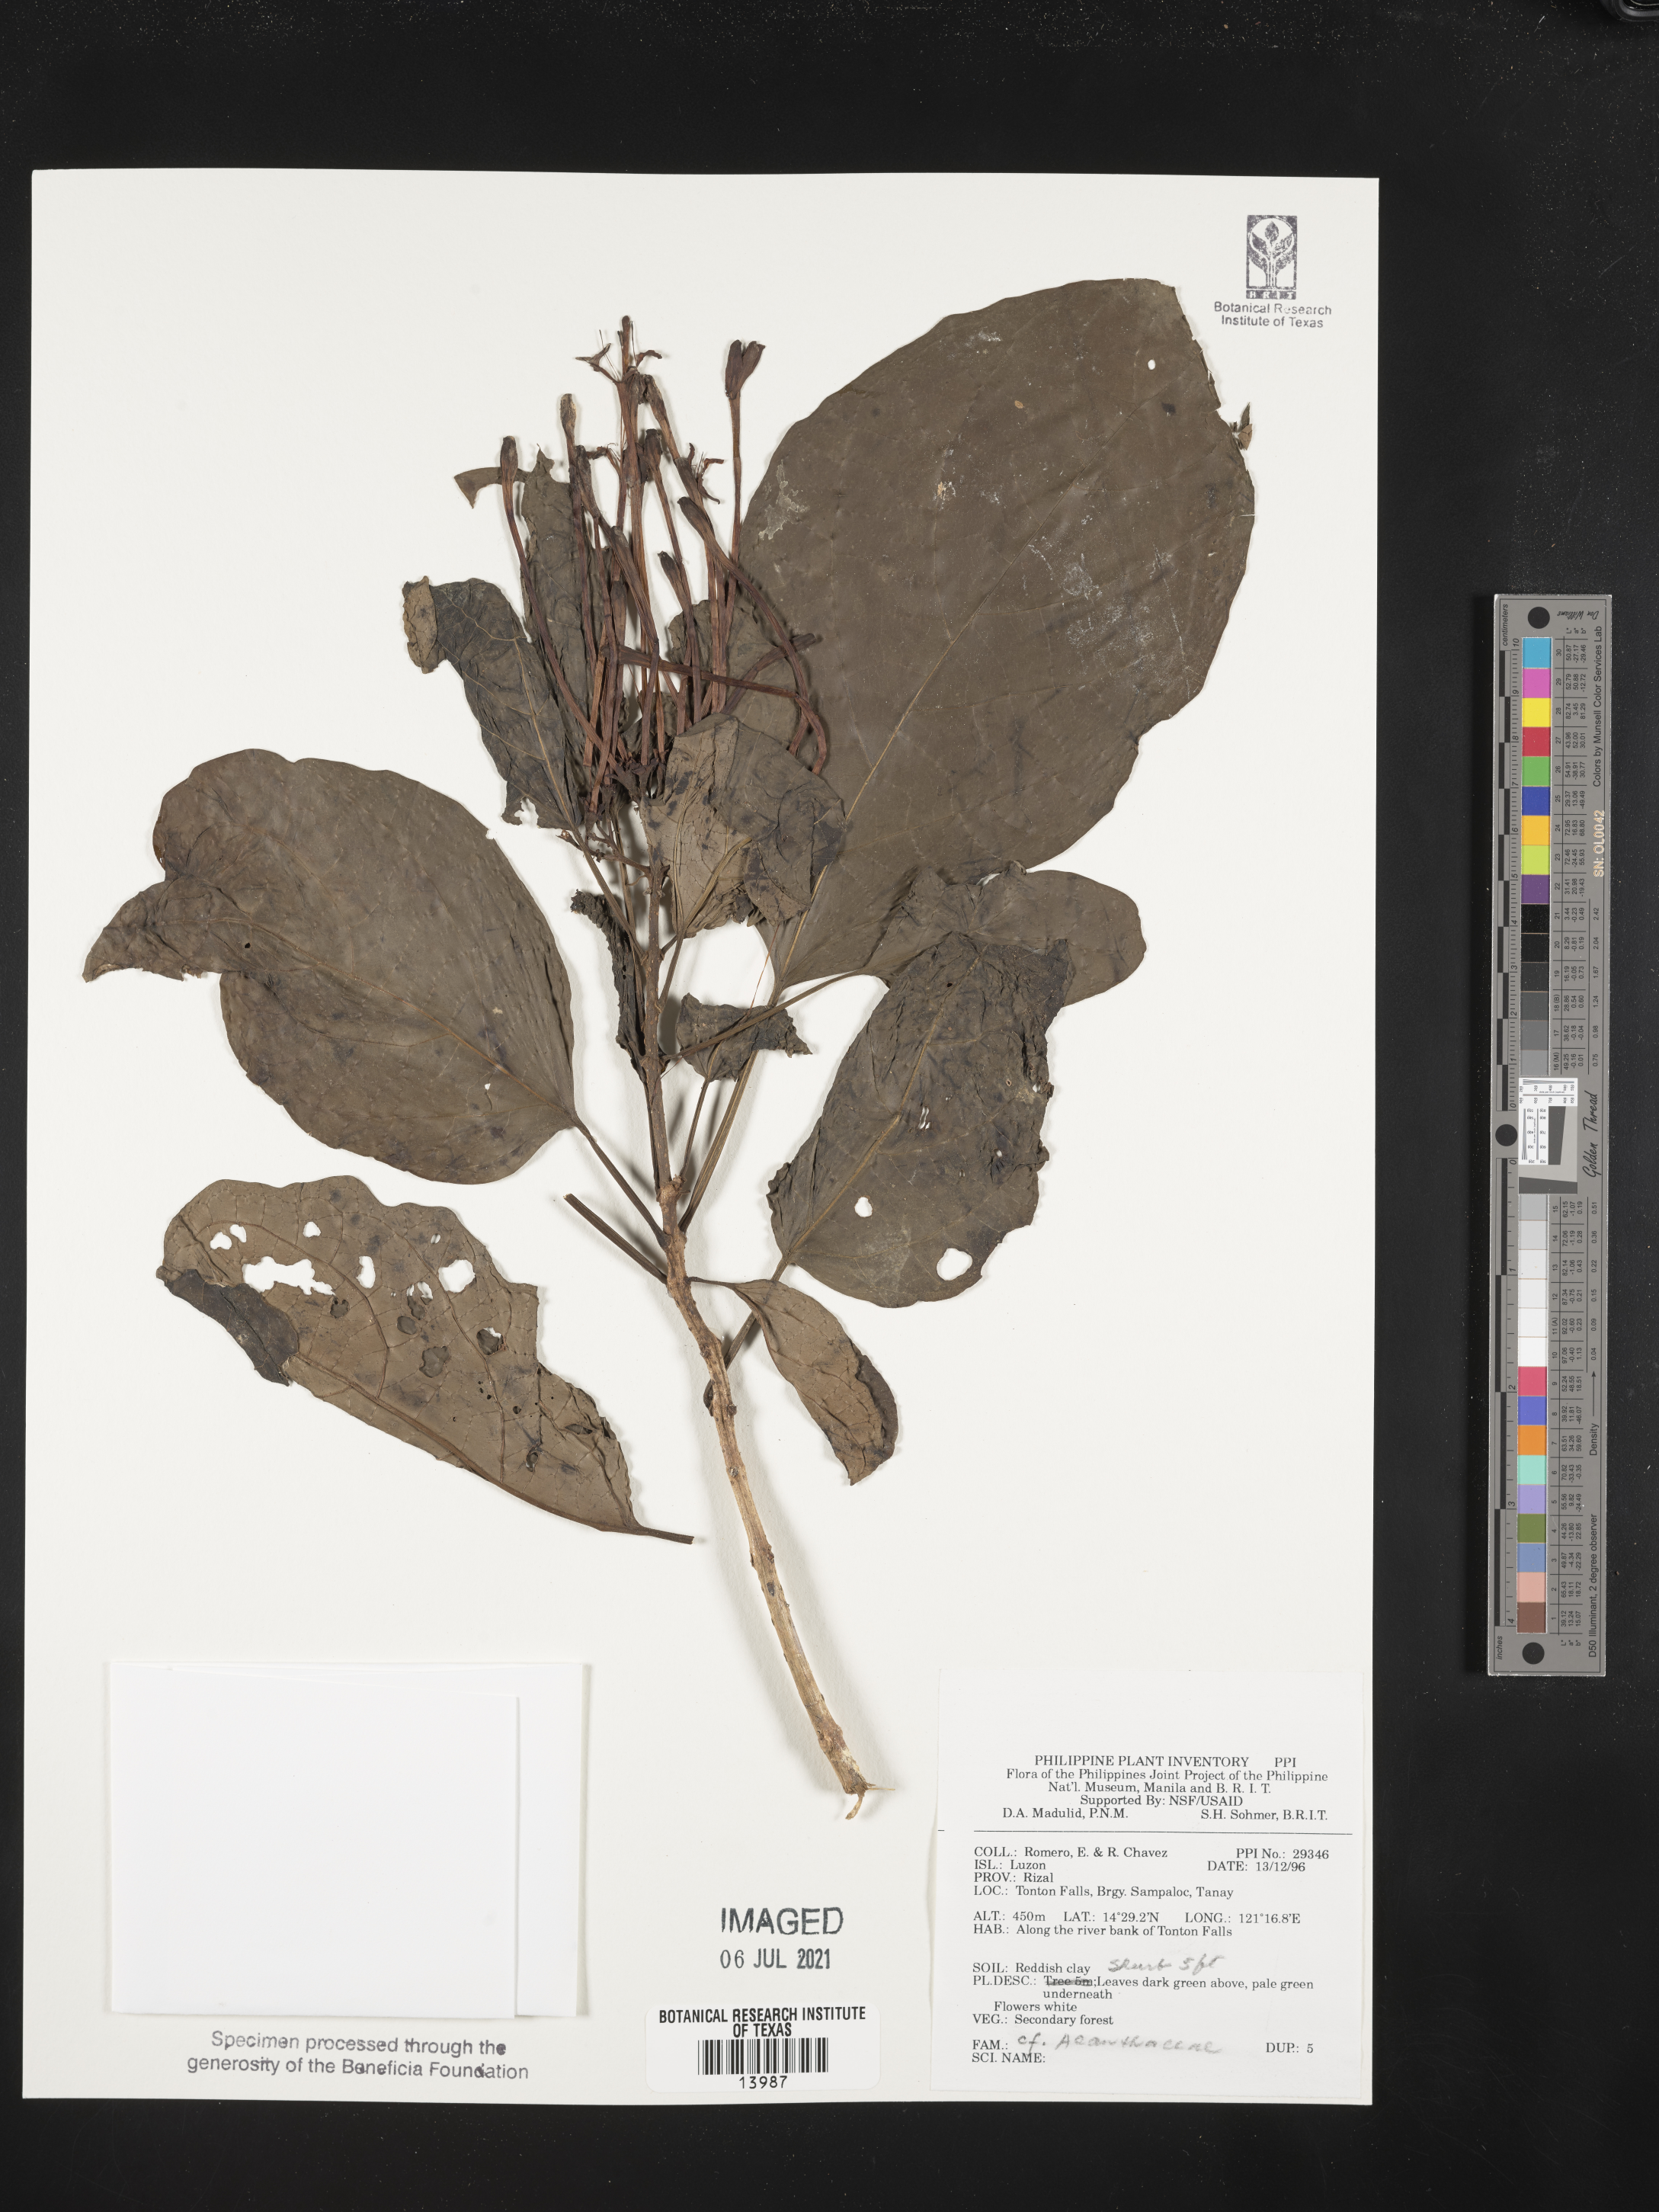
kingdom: Plantae
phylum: Tracheophyta
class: Magnoliopsida
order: Lamiales
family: Acanthaceae
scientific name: Acanthaceae
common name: Acanthaceae
